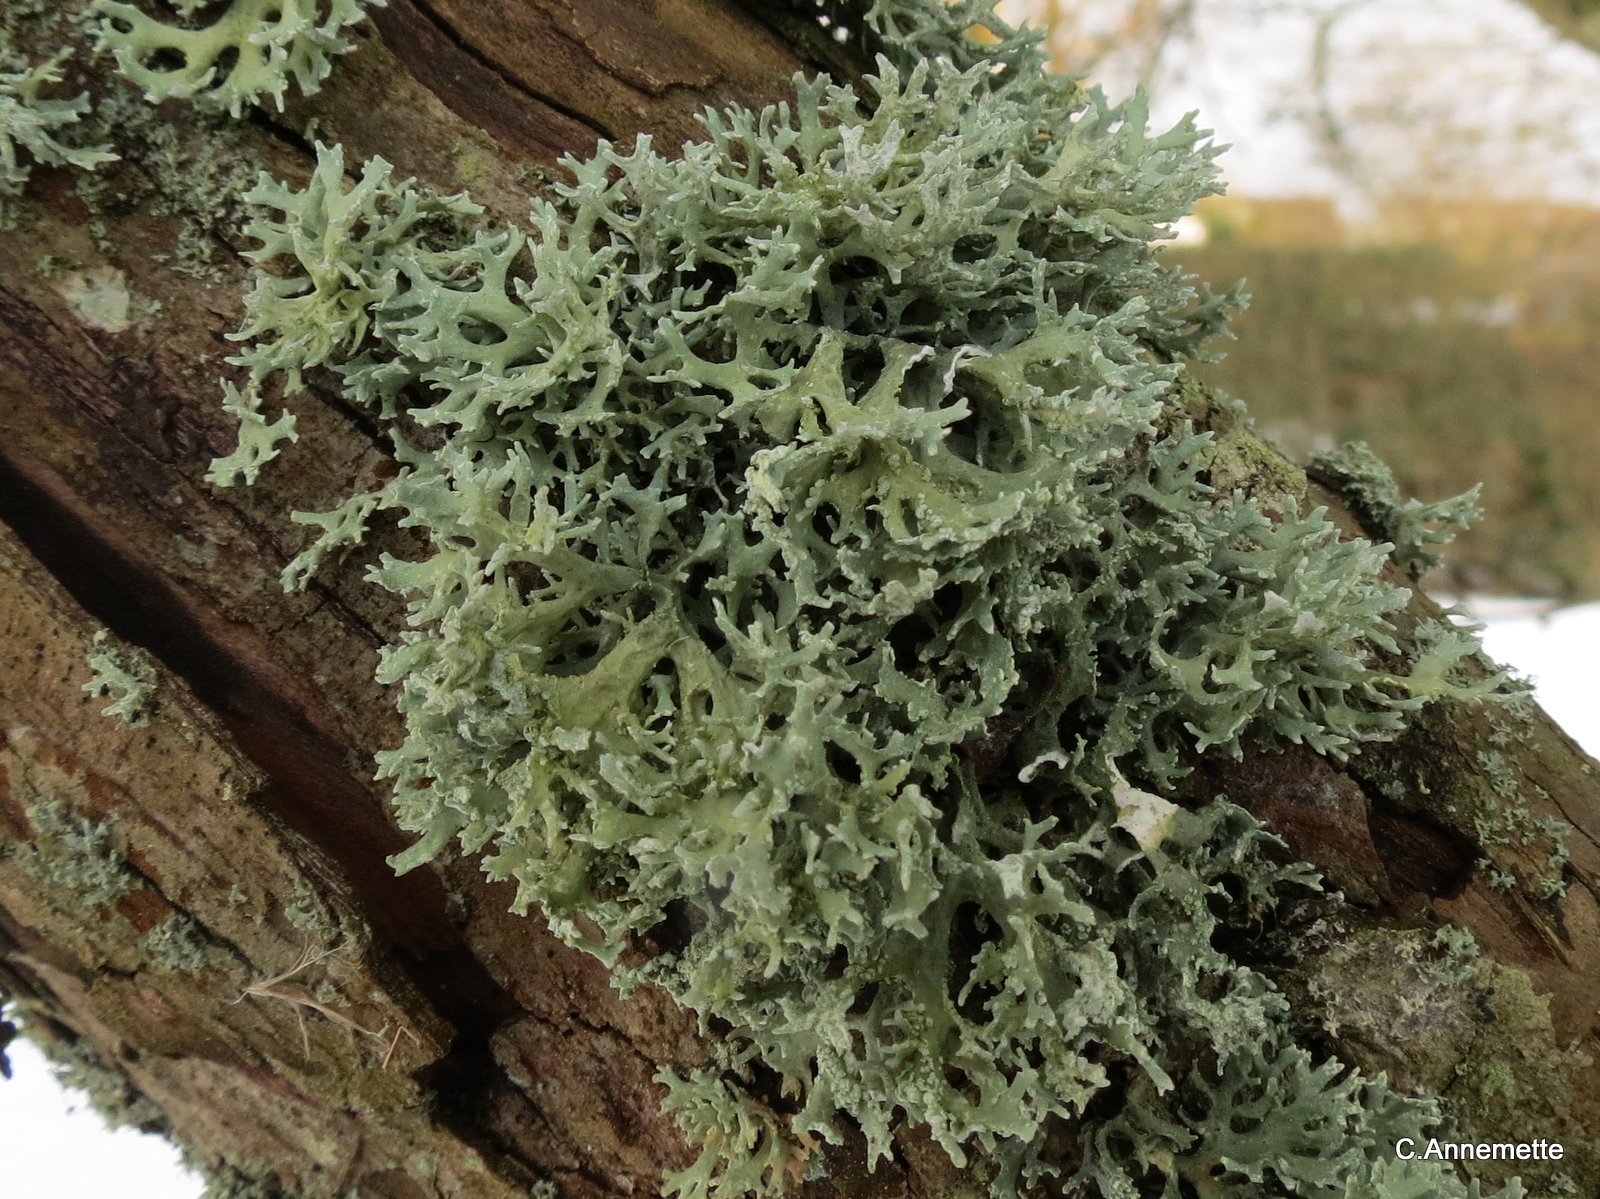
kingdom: Fungi
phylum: Ascomycota
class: Lecanoromycetes
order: Lecanorales
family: Parmeliaceae
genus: Evernia
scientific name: Evernia prunastri
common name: almindelig slåenlav
